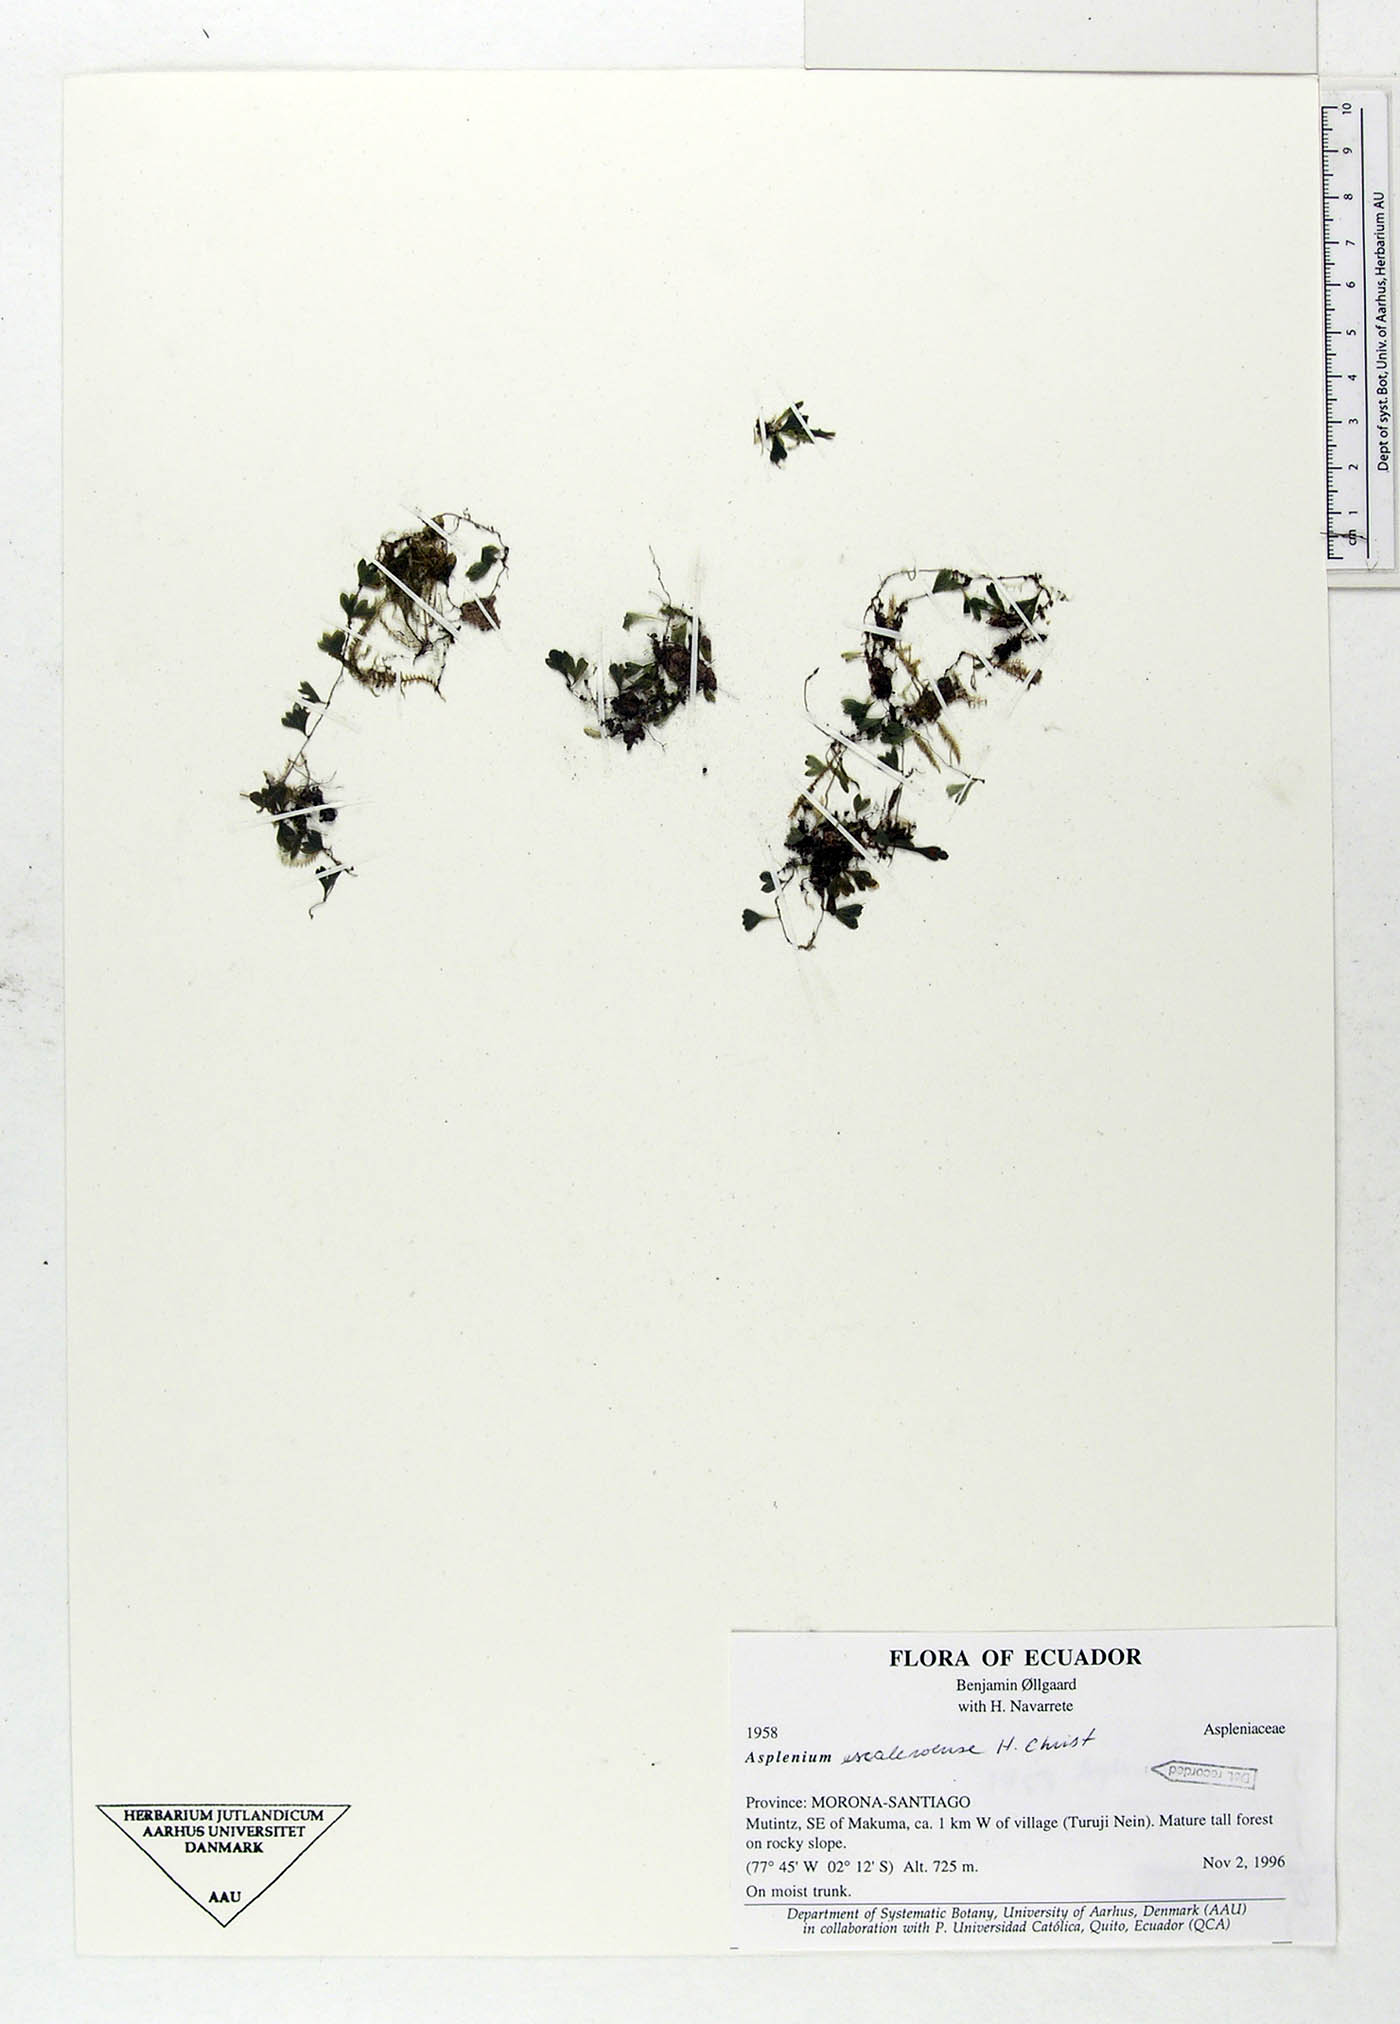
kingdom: Plantae
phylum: Tracheophyta
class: Polypodiopsida
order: Polypodiales
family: Aspleniaceae
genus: Asplenium
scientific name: Asplenium escaleroense
